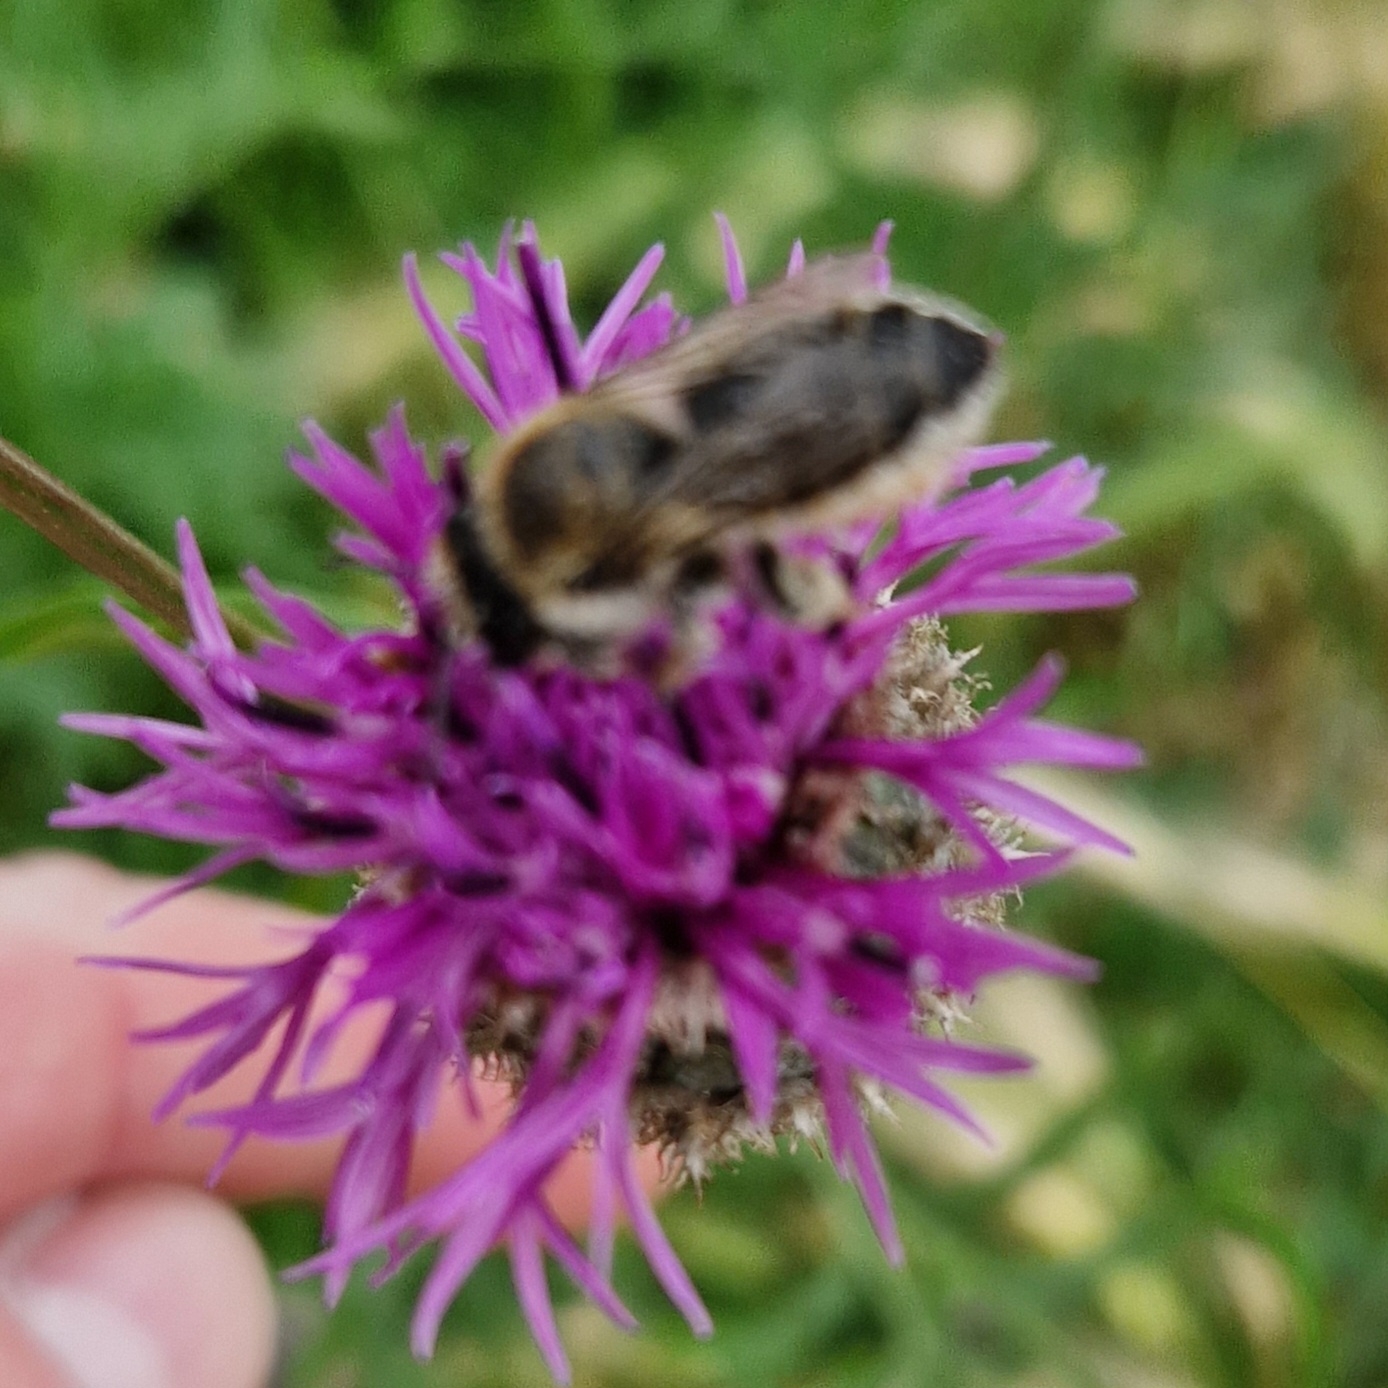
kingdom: Plantae
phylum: Tracheophyta
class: Magnoliopsida
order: Asterales
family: Asteraceae
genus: Centaurea
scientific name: Centaurea scabiosa
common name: Stor knopurt
